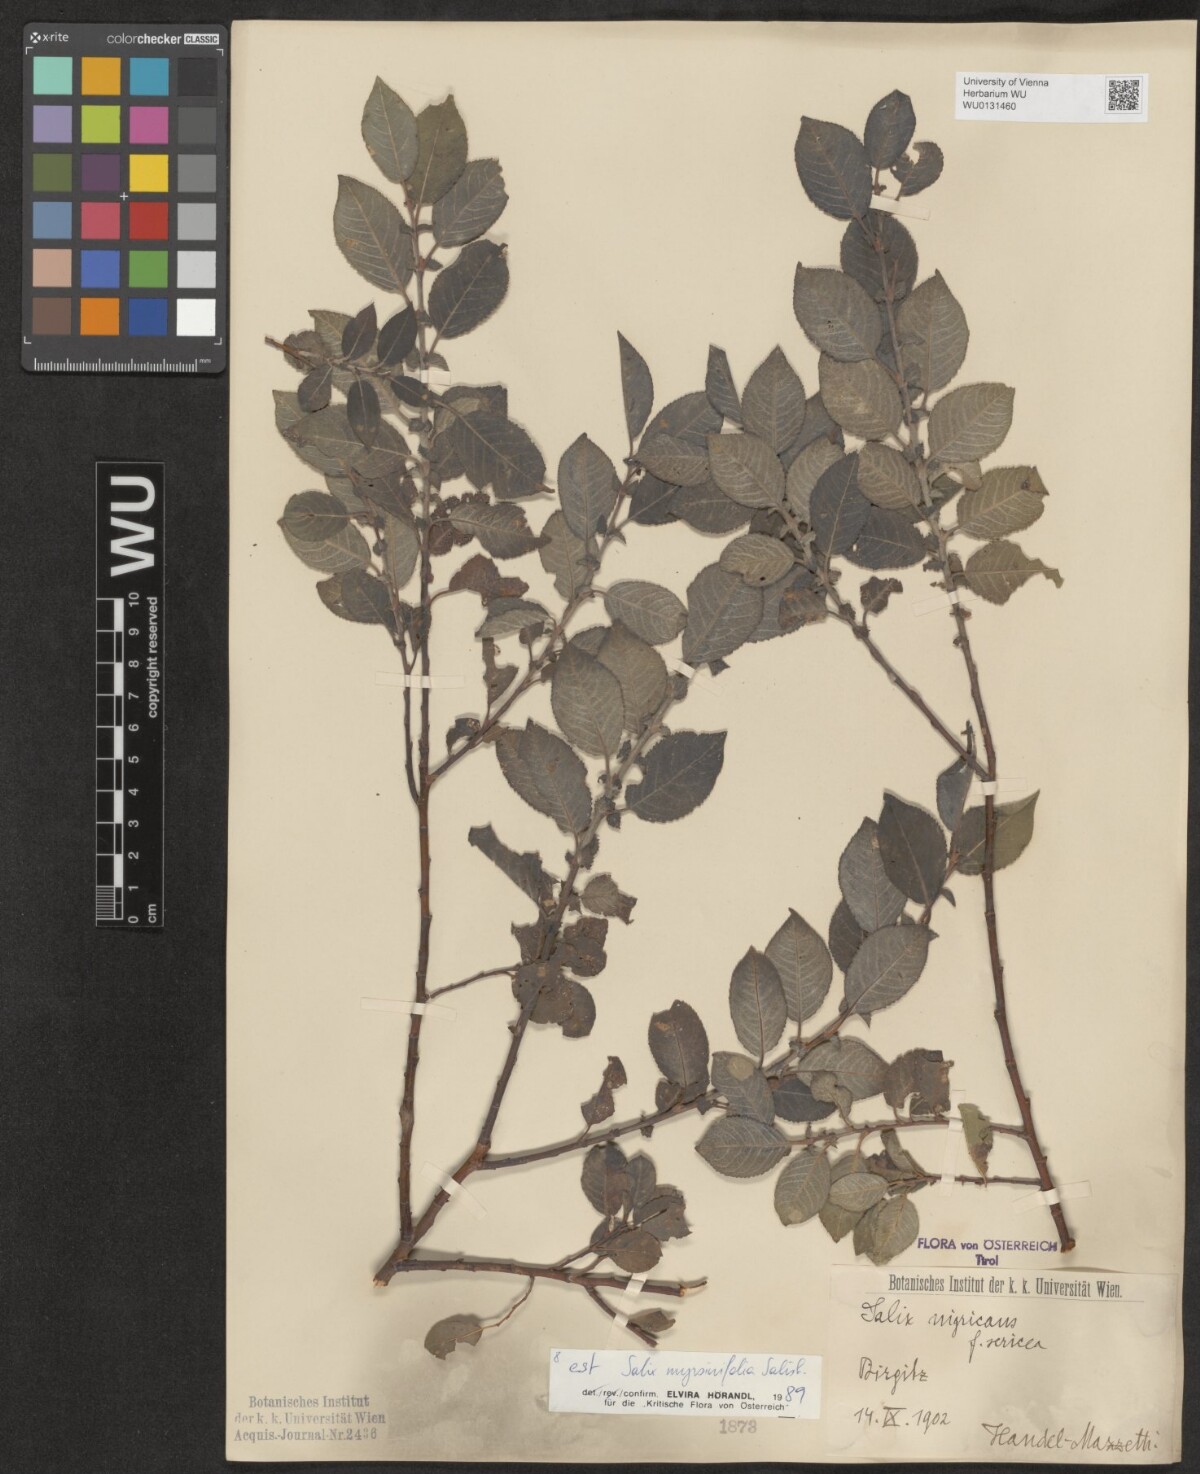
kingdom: Plantae
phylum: Tracheophyta
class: Magnoliopsida
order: Malpighiales
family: Salicaceae
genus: Salix
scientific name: Salix myrsinifolia
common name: Dark-leaved willow
